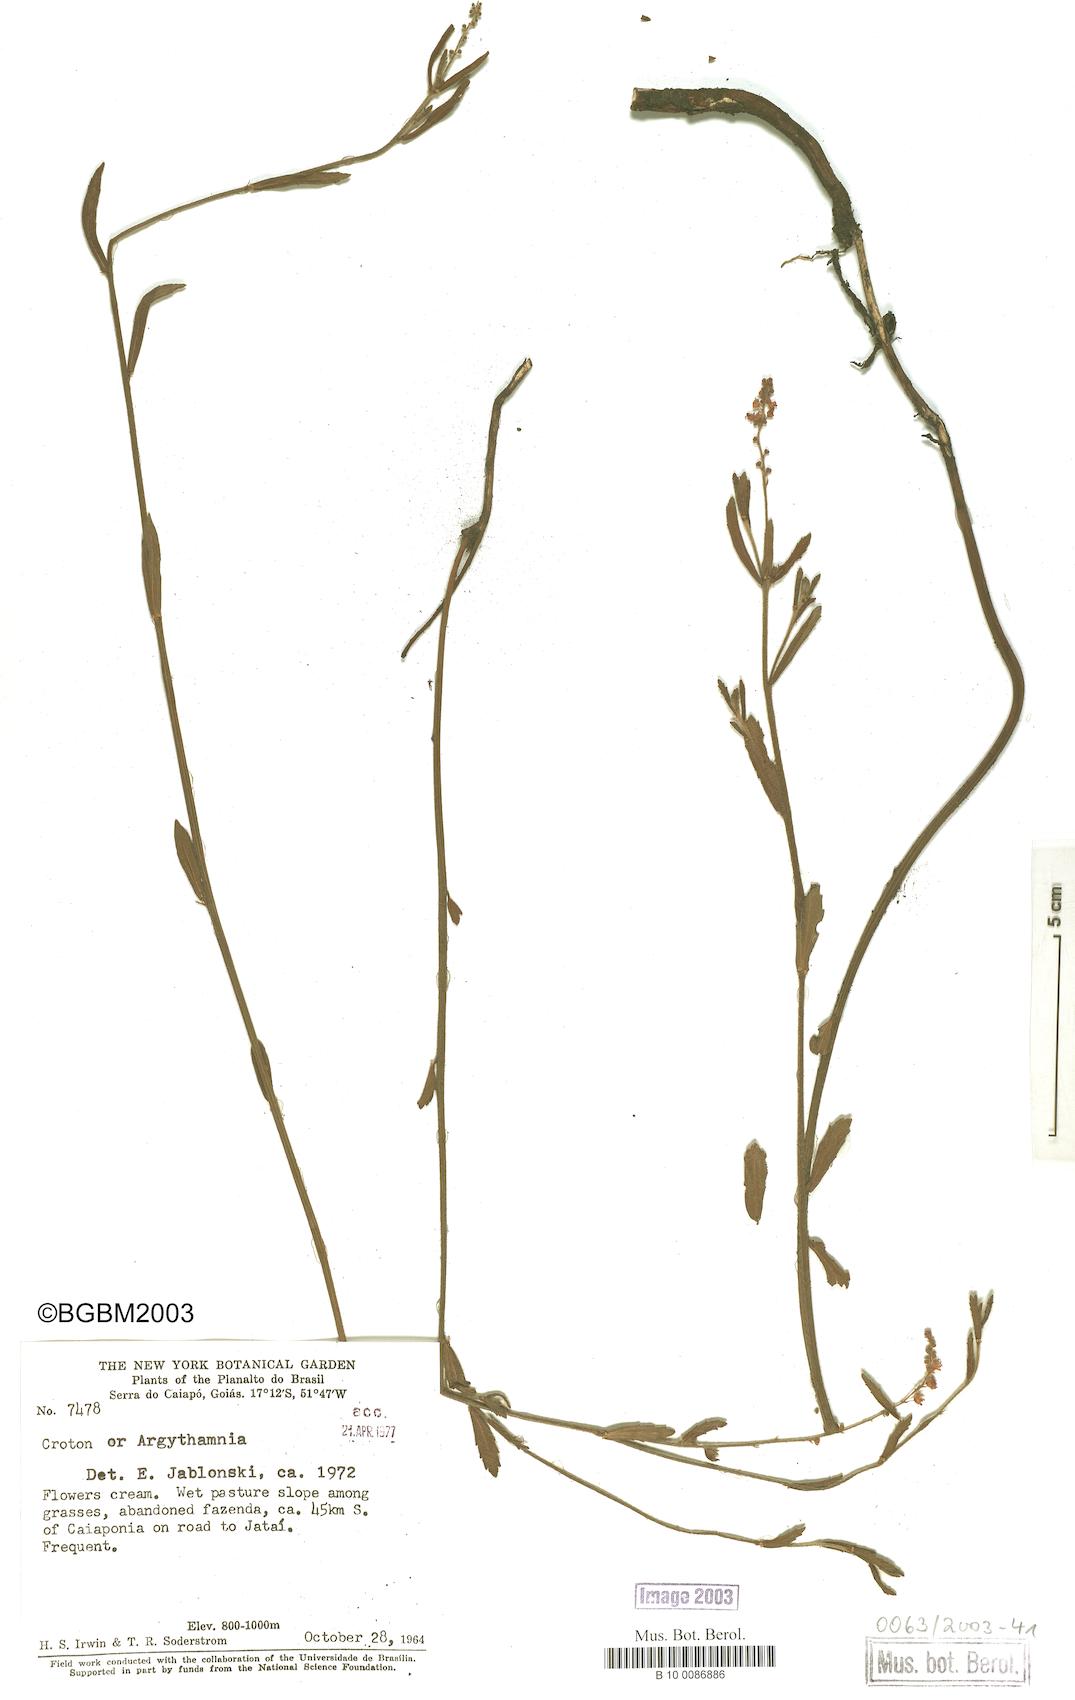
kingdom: Plantae
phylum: Tracheophyta
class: Magnoliopsida
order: Malpighiales
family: Euphorbiaceae
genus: Croton
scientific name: Croton
